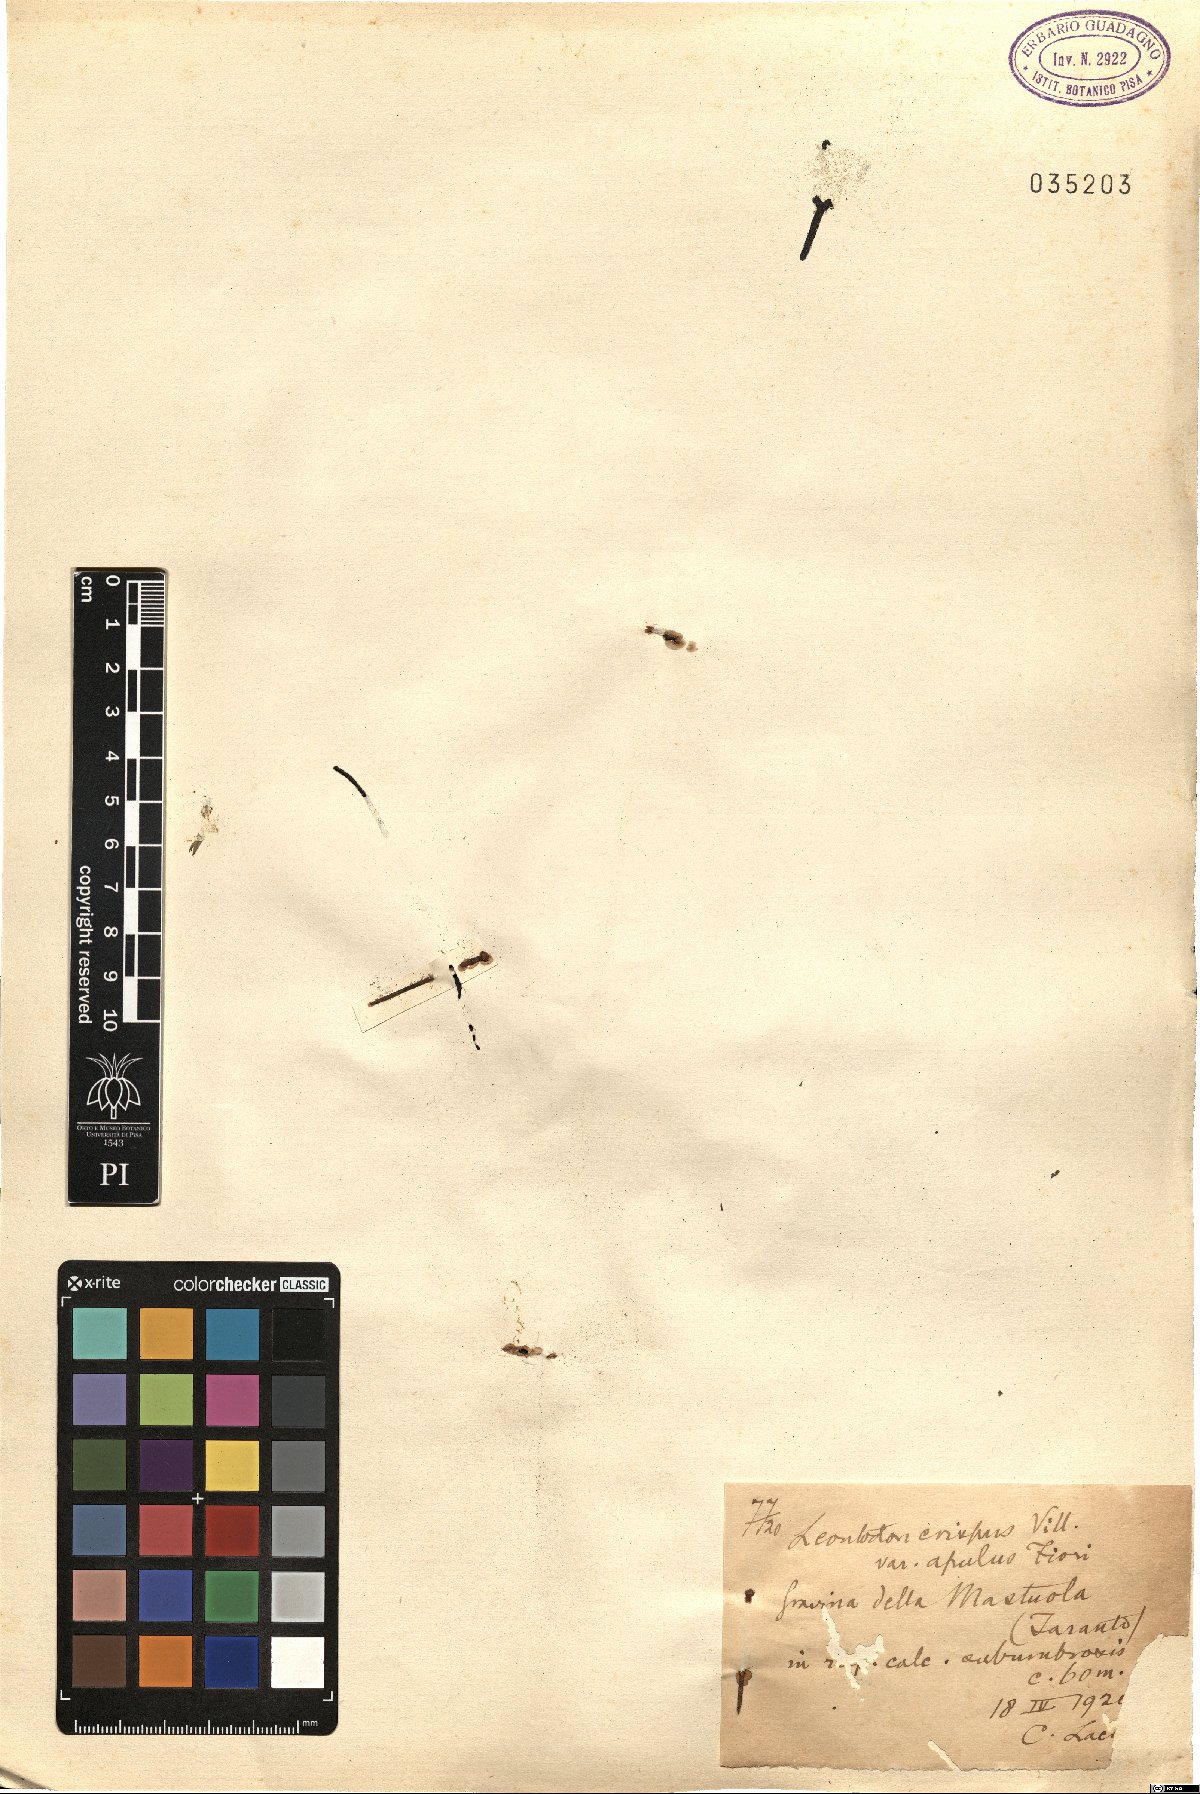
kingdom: Plantae
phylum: Tracheophyta
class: Magnoliopsida
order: Asterales
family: Asteraceae
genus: Leontodon
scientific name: Leontodon apulus
